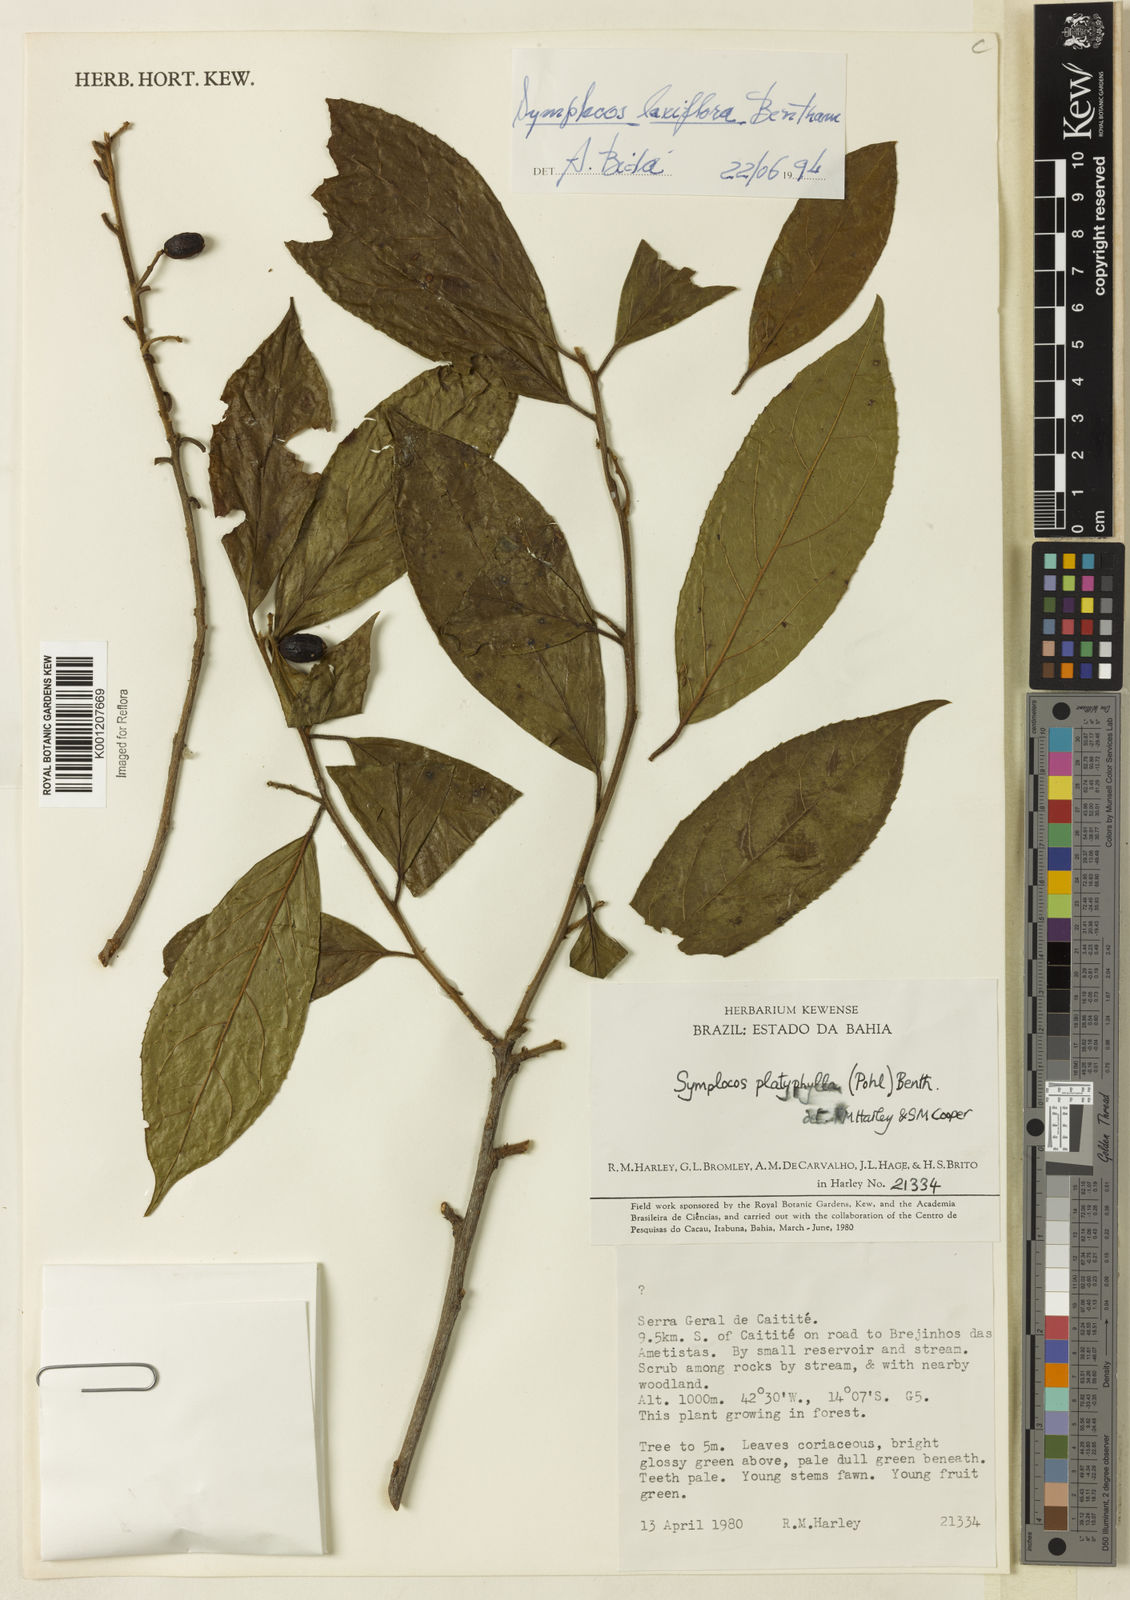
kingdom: Plantae
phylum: Tracheophyta
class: Magnoliopsida
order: Ericales
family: Symplocaceae
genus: Symplocos
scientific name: Symplocos laxiflora
